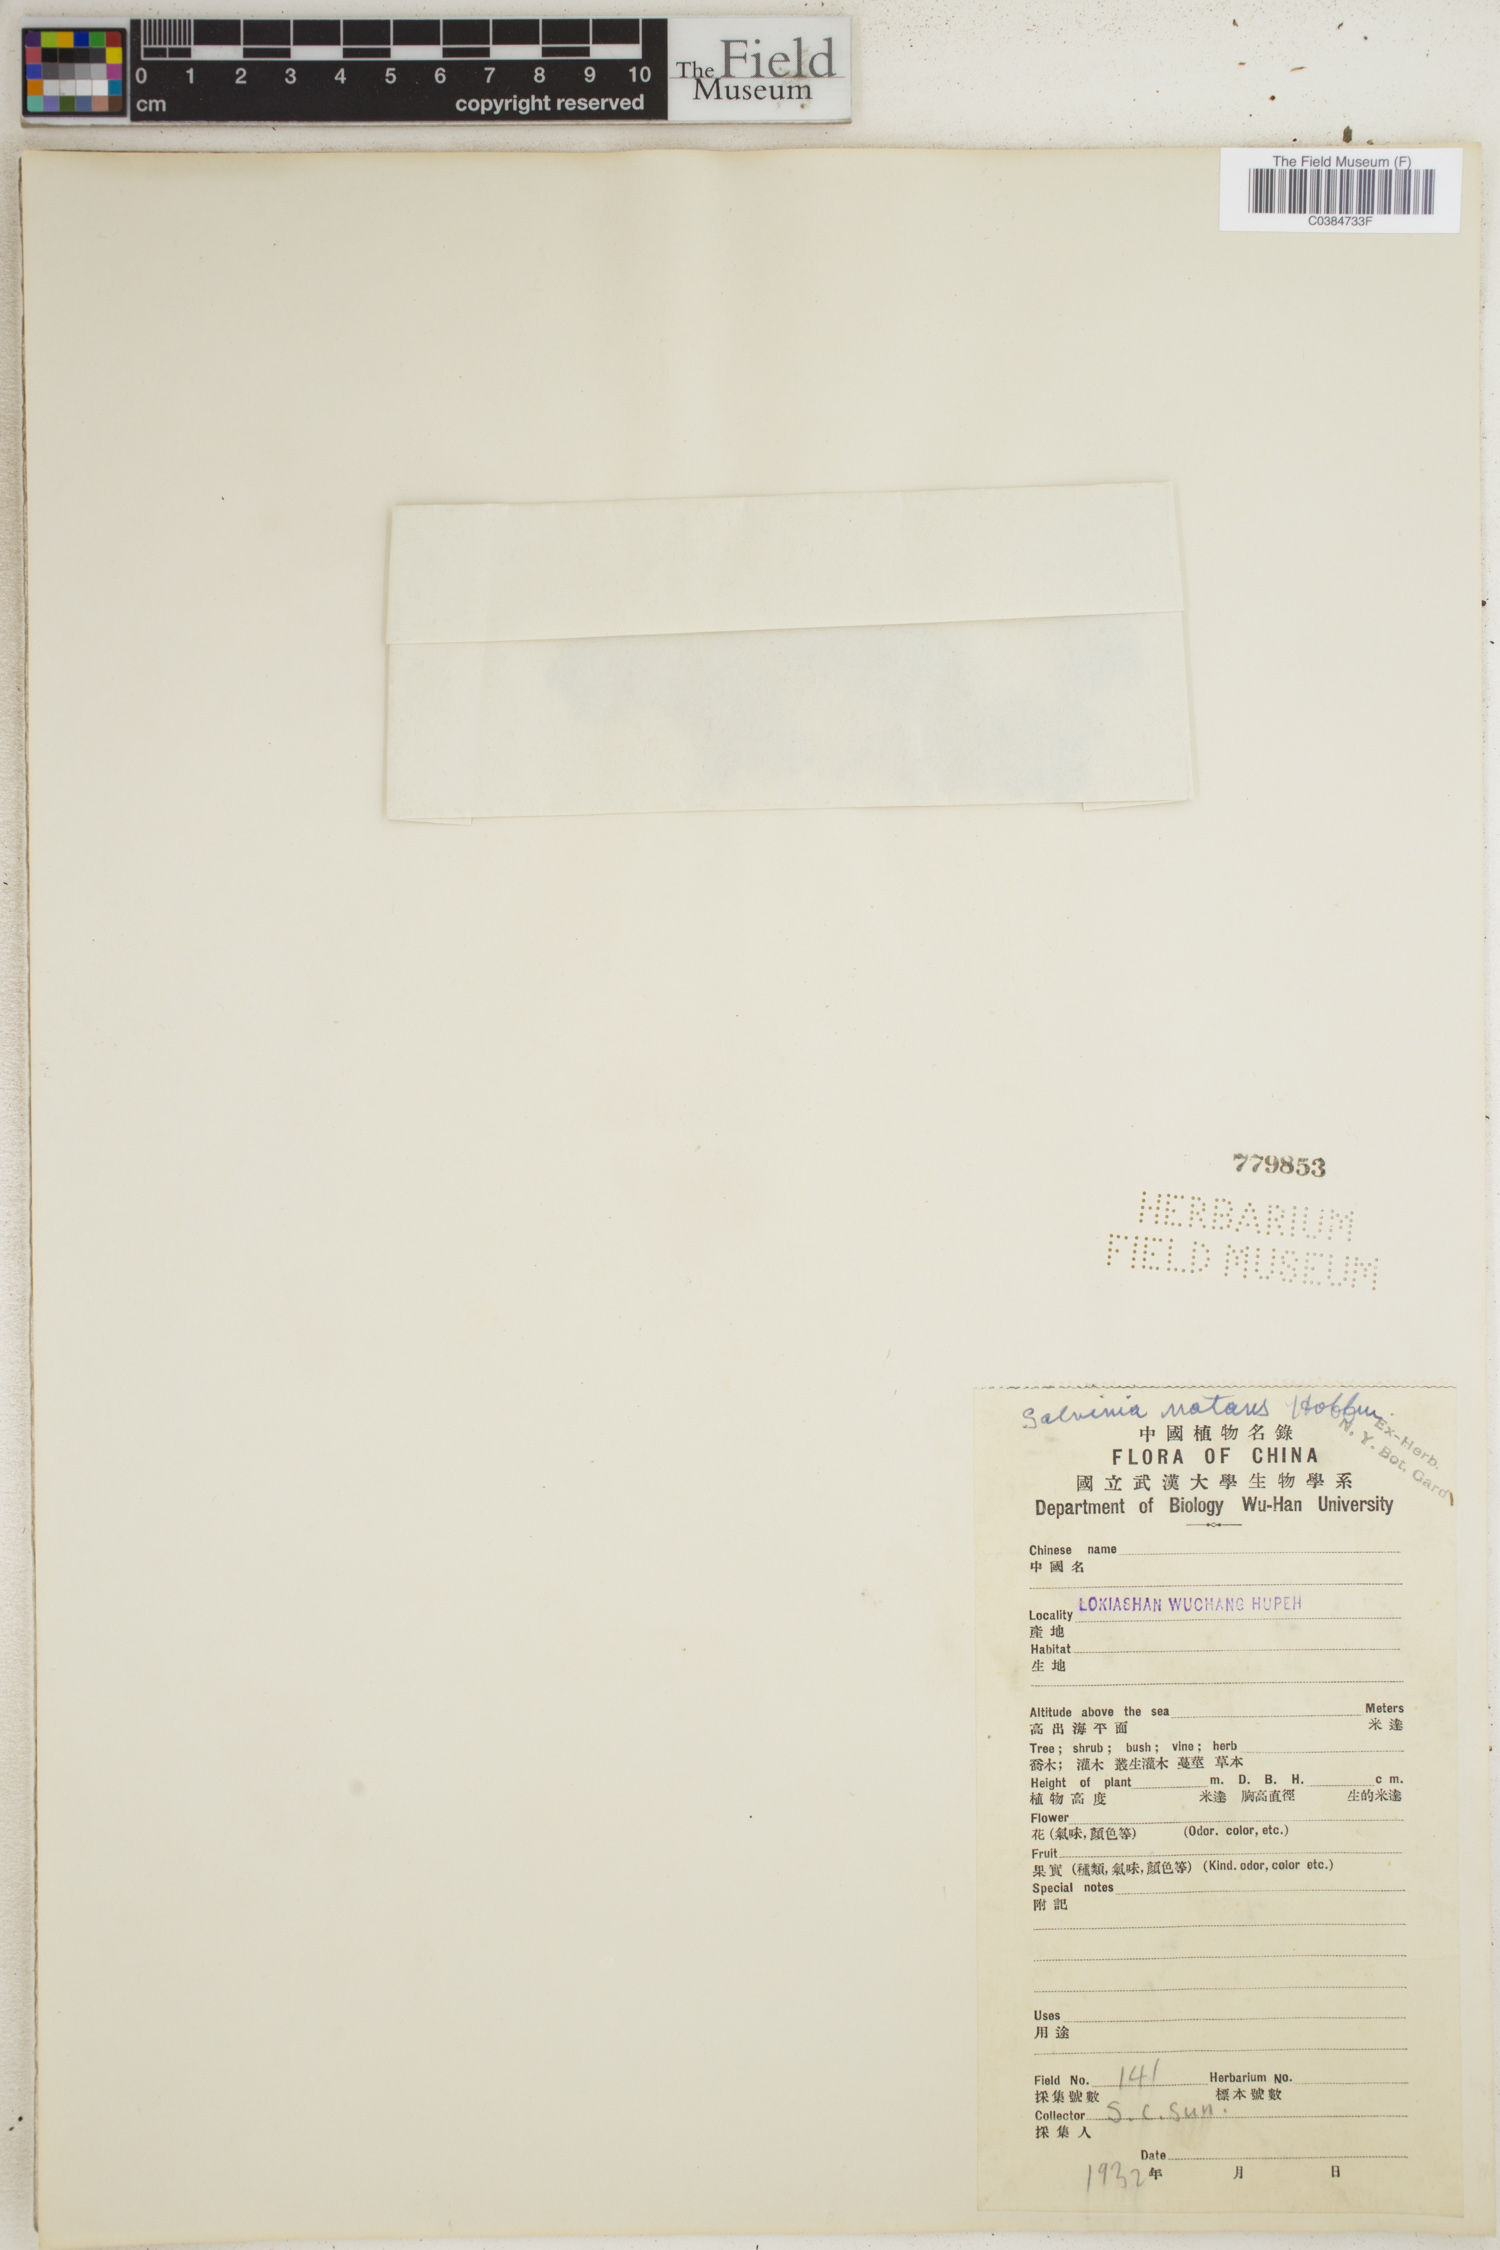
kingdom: Plantae
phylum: Tracheophyta
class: Polypodiopsida
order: Salviniales
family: Salviniaceae
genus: Salvinia
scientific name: Salvinia natans
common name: Floating fern
